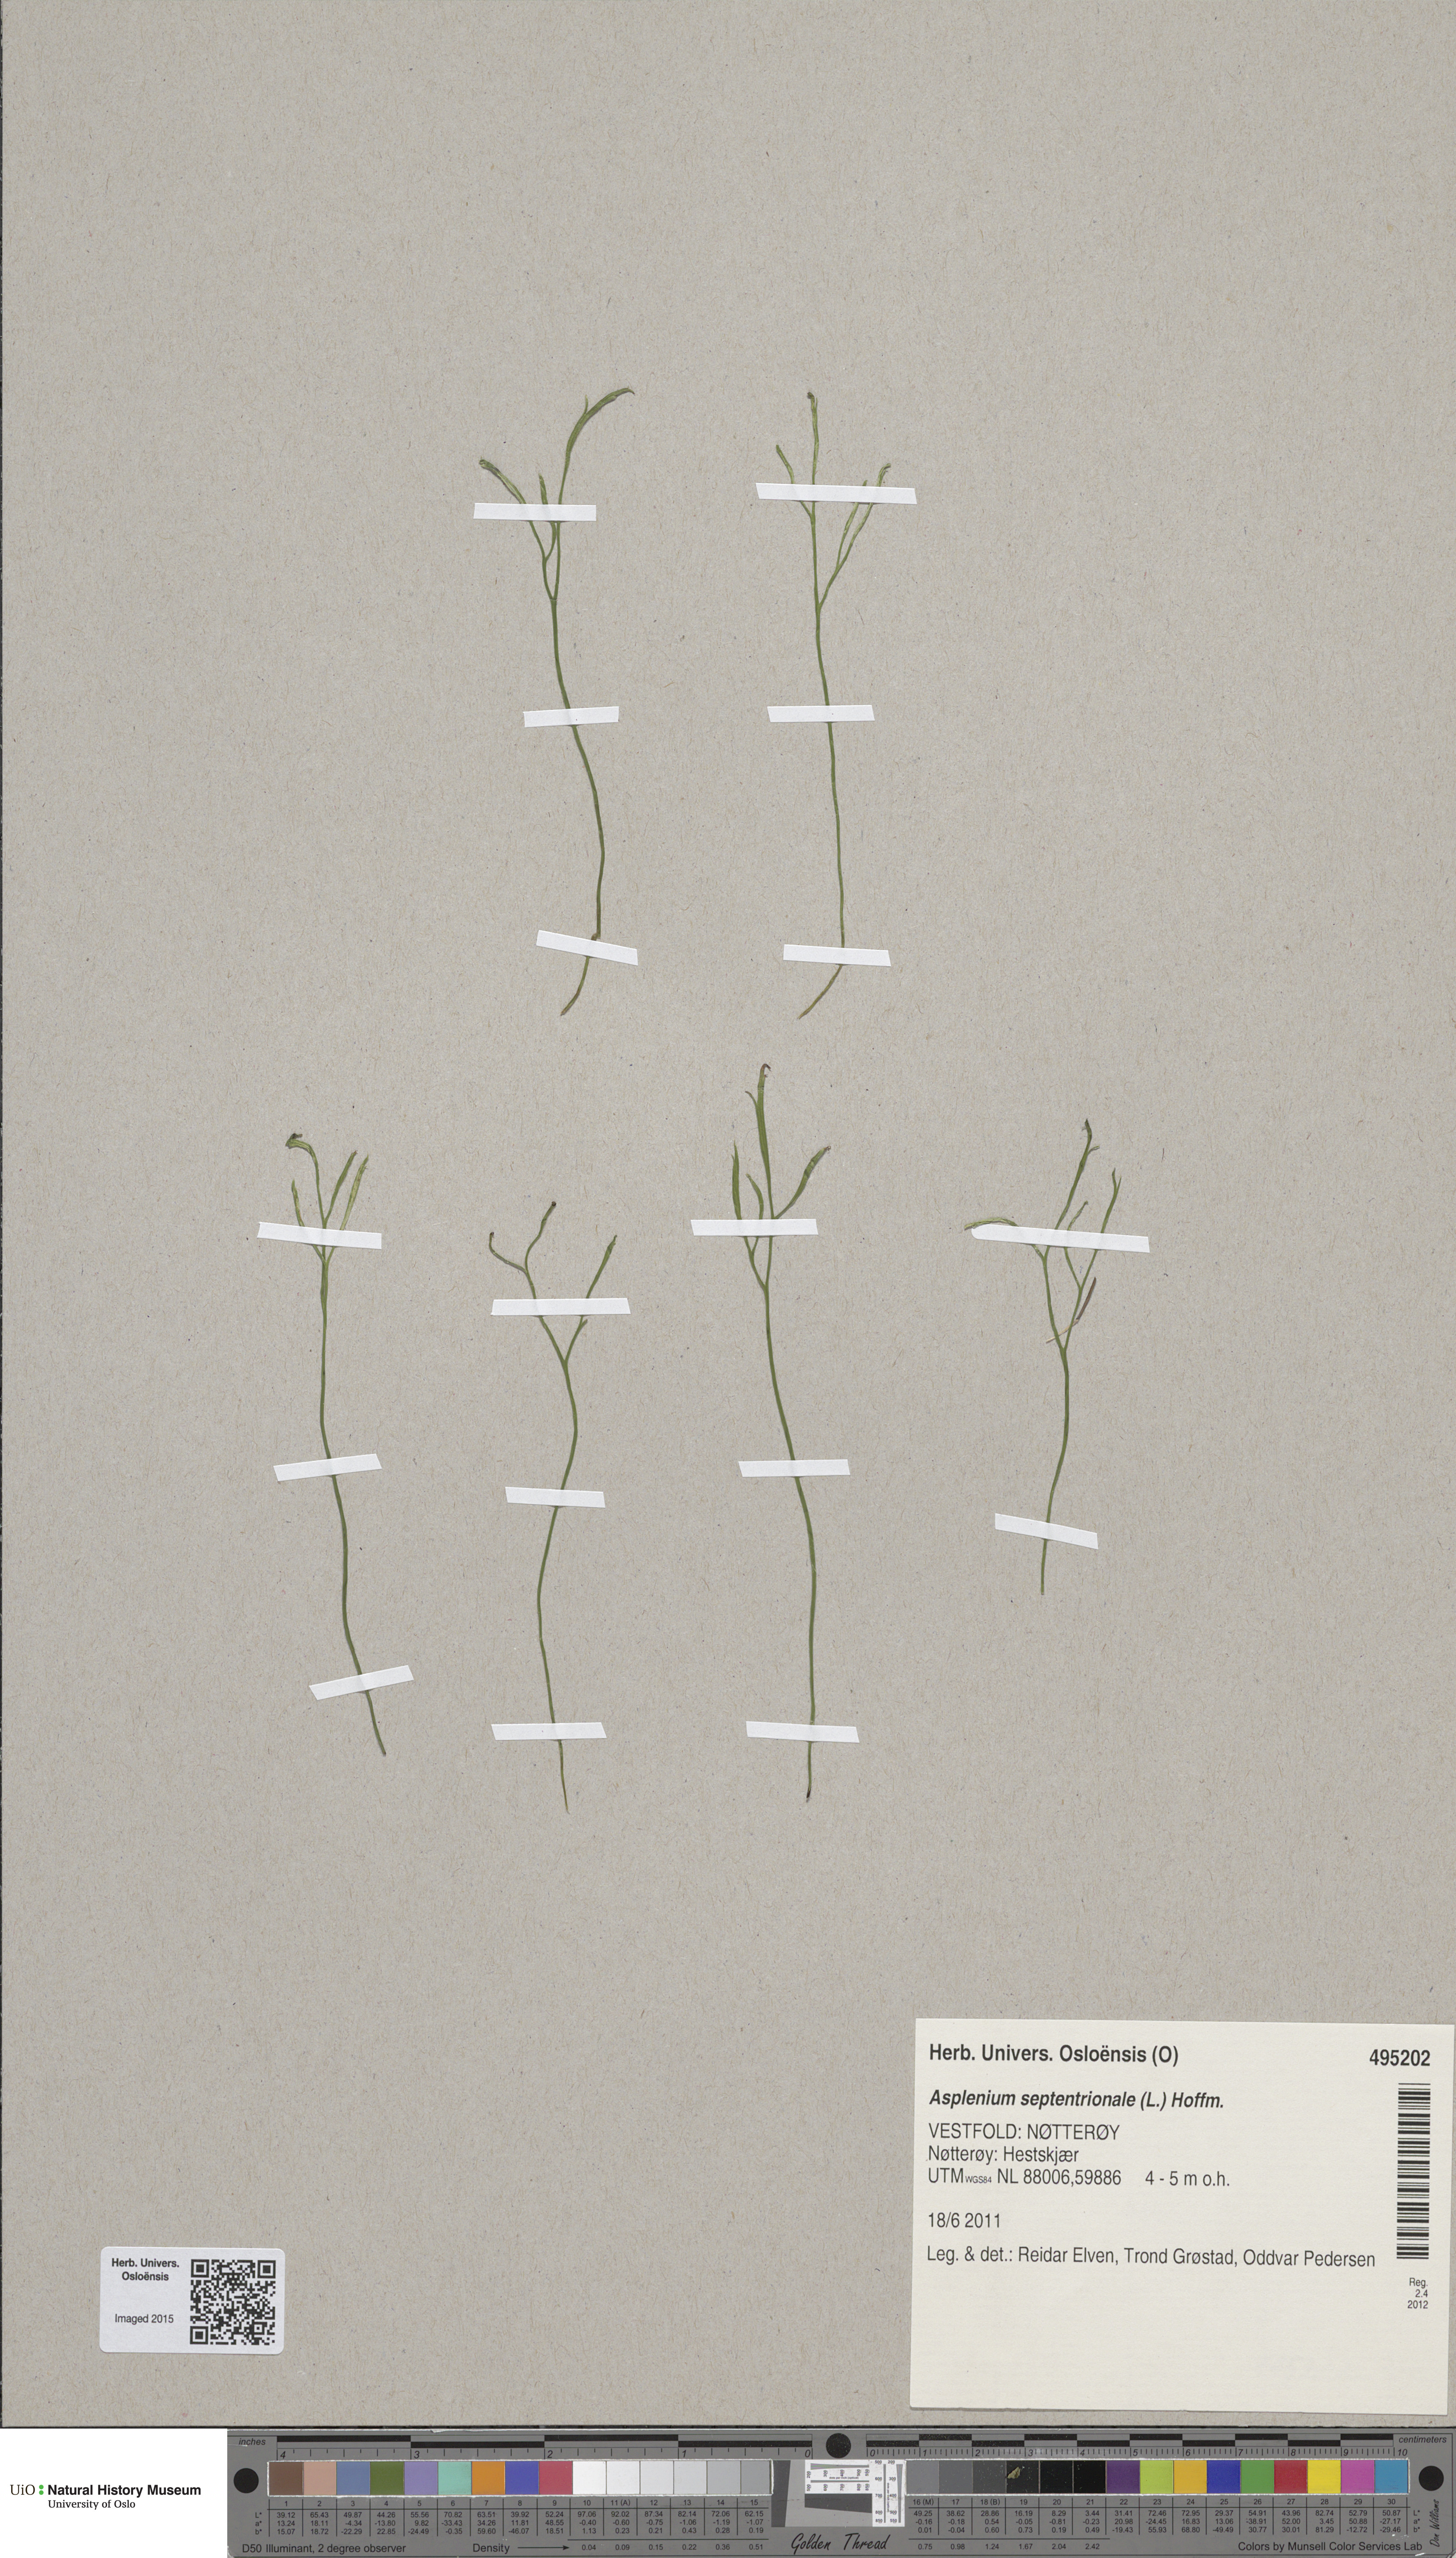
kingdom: Plantae
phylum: Tracheophyta
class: Polypodiopsida
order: Polypodiales
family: Aspleniaceae
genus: Asplenium
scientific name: Asplenium septentrionale
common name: Forked spleenwort
